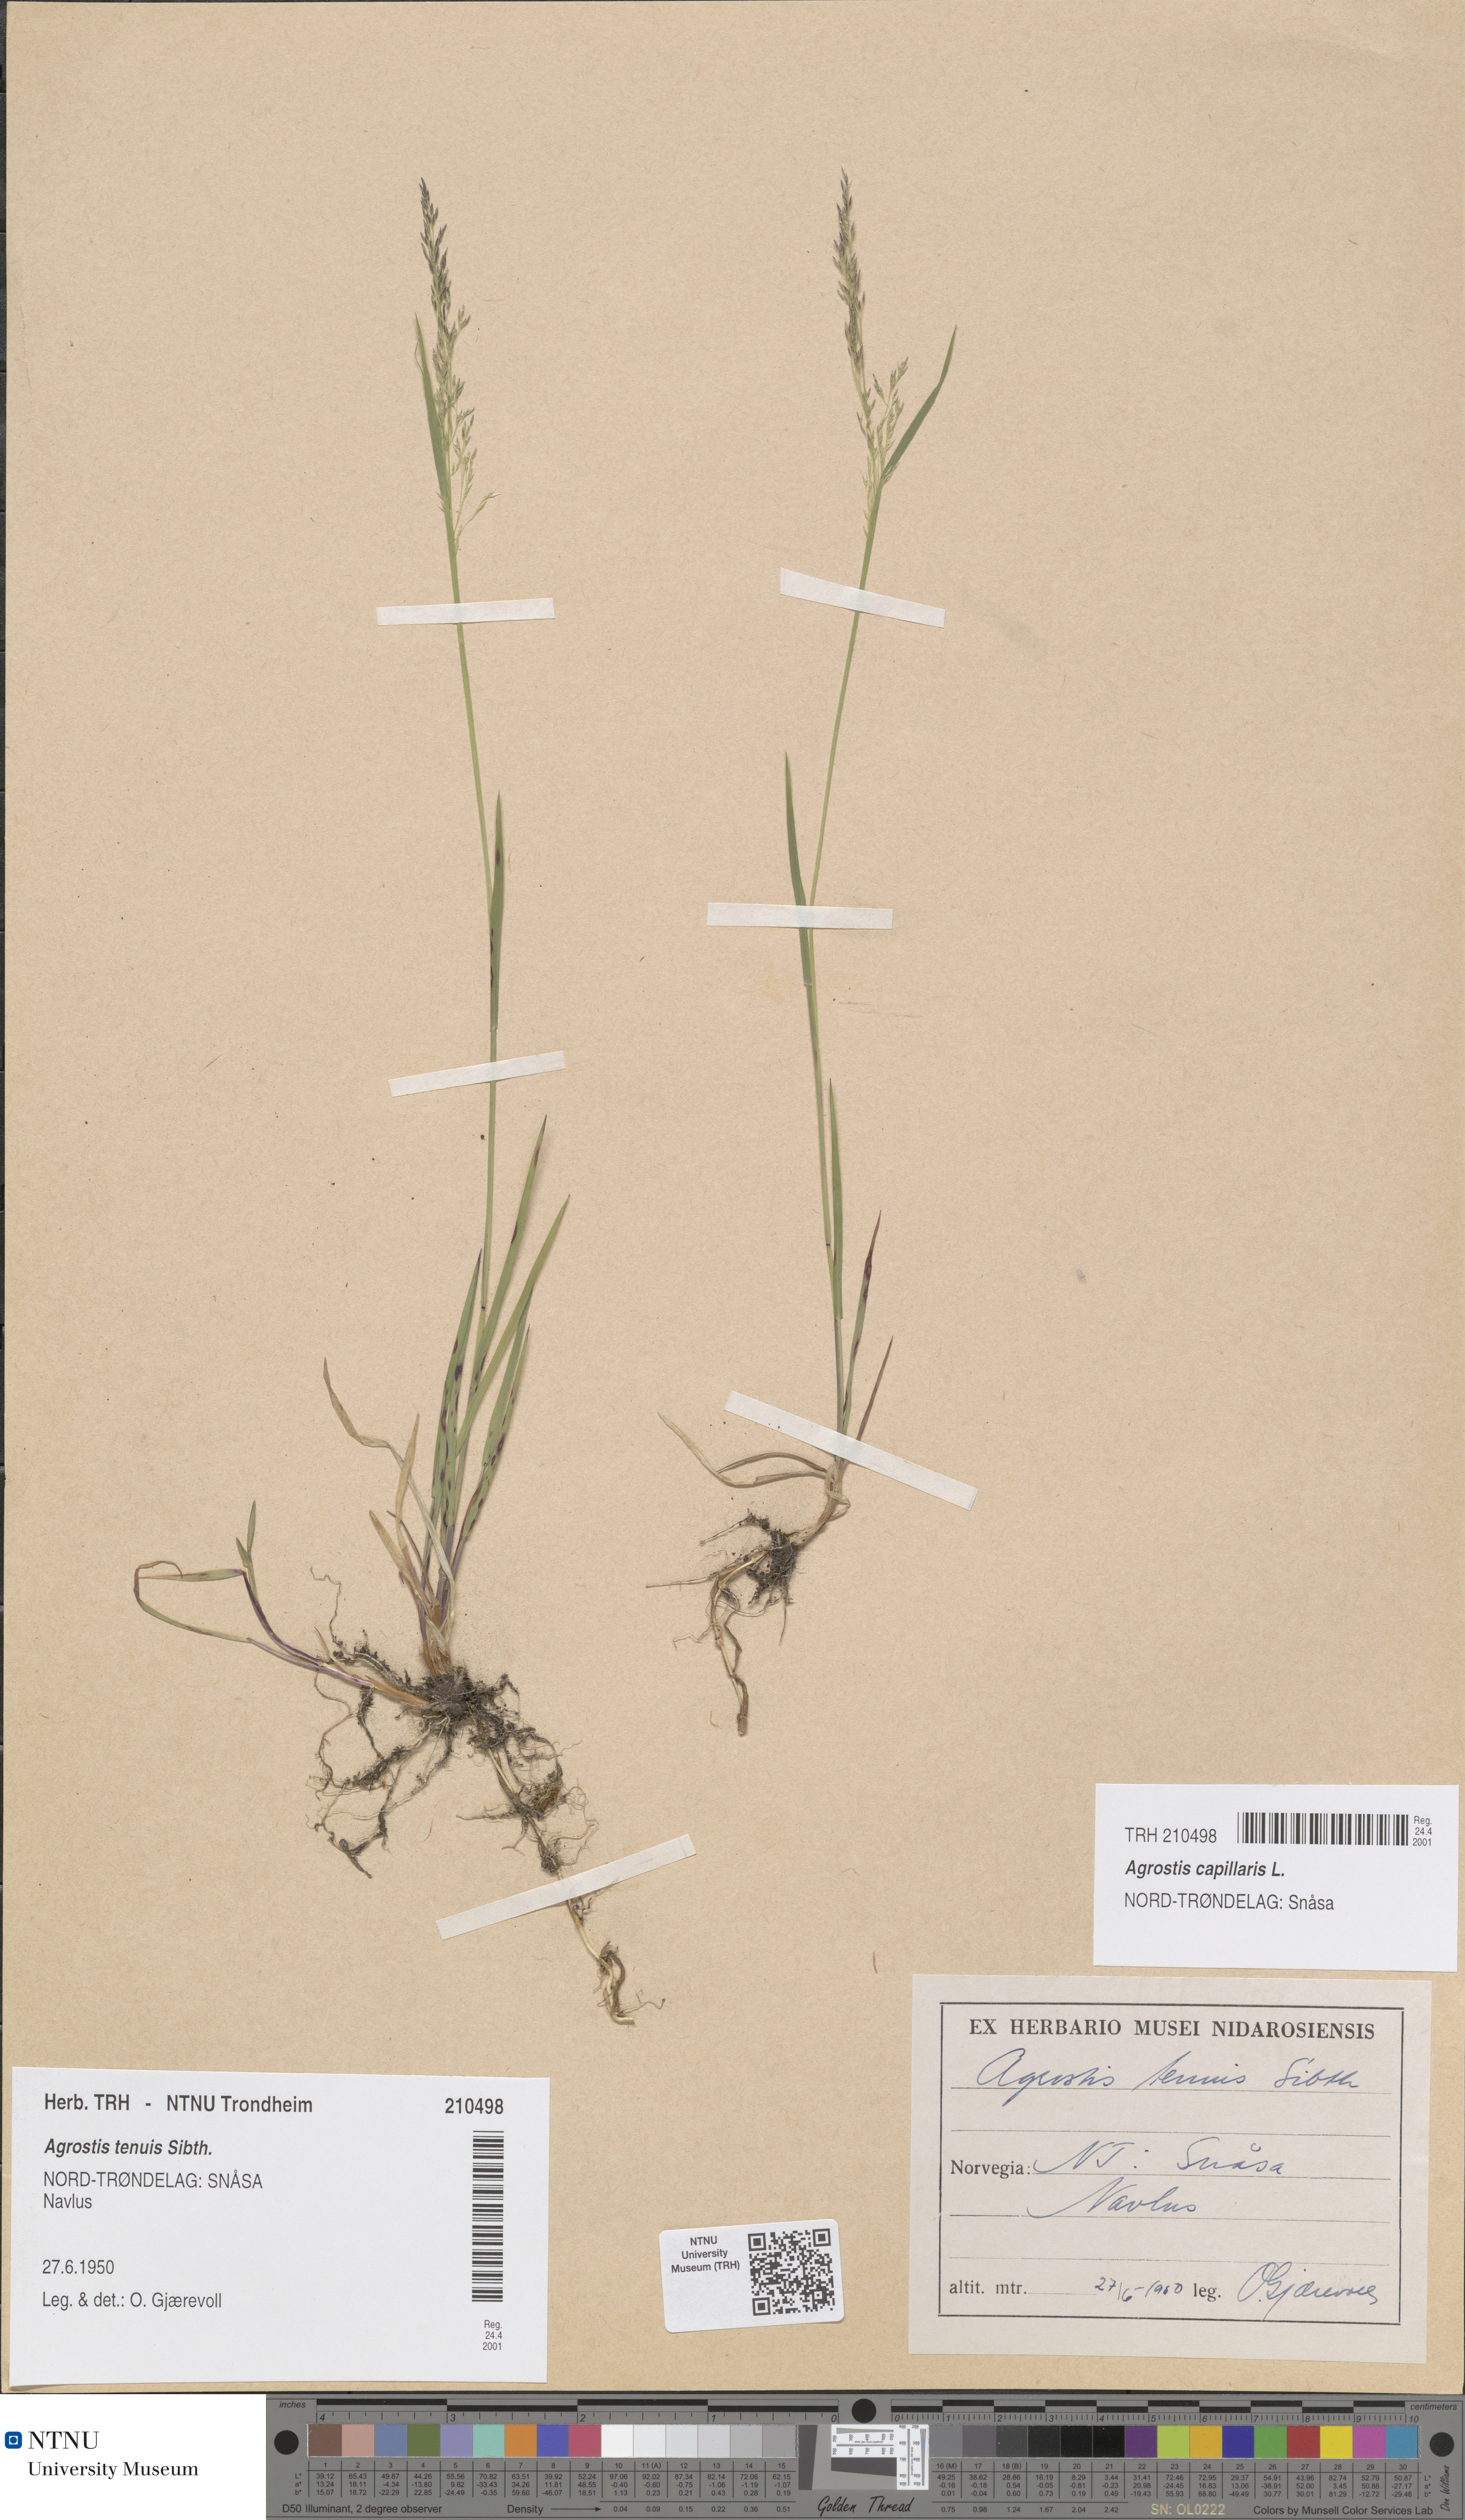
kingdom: Plantae
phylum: Tracheophyta
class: Liliopsida
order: Poales
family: Poaceae
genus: Agrostis
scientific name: Agrostis capillaris
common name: Colonial bentgrass
